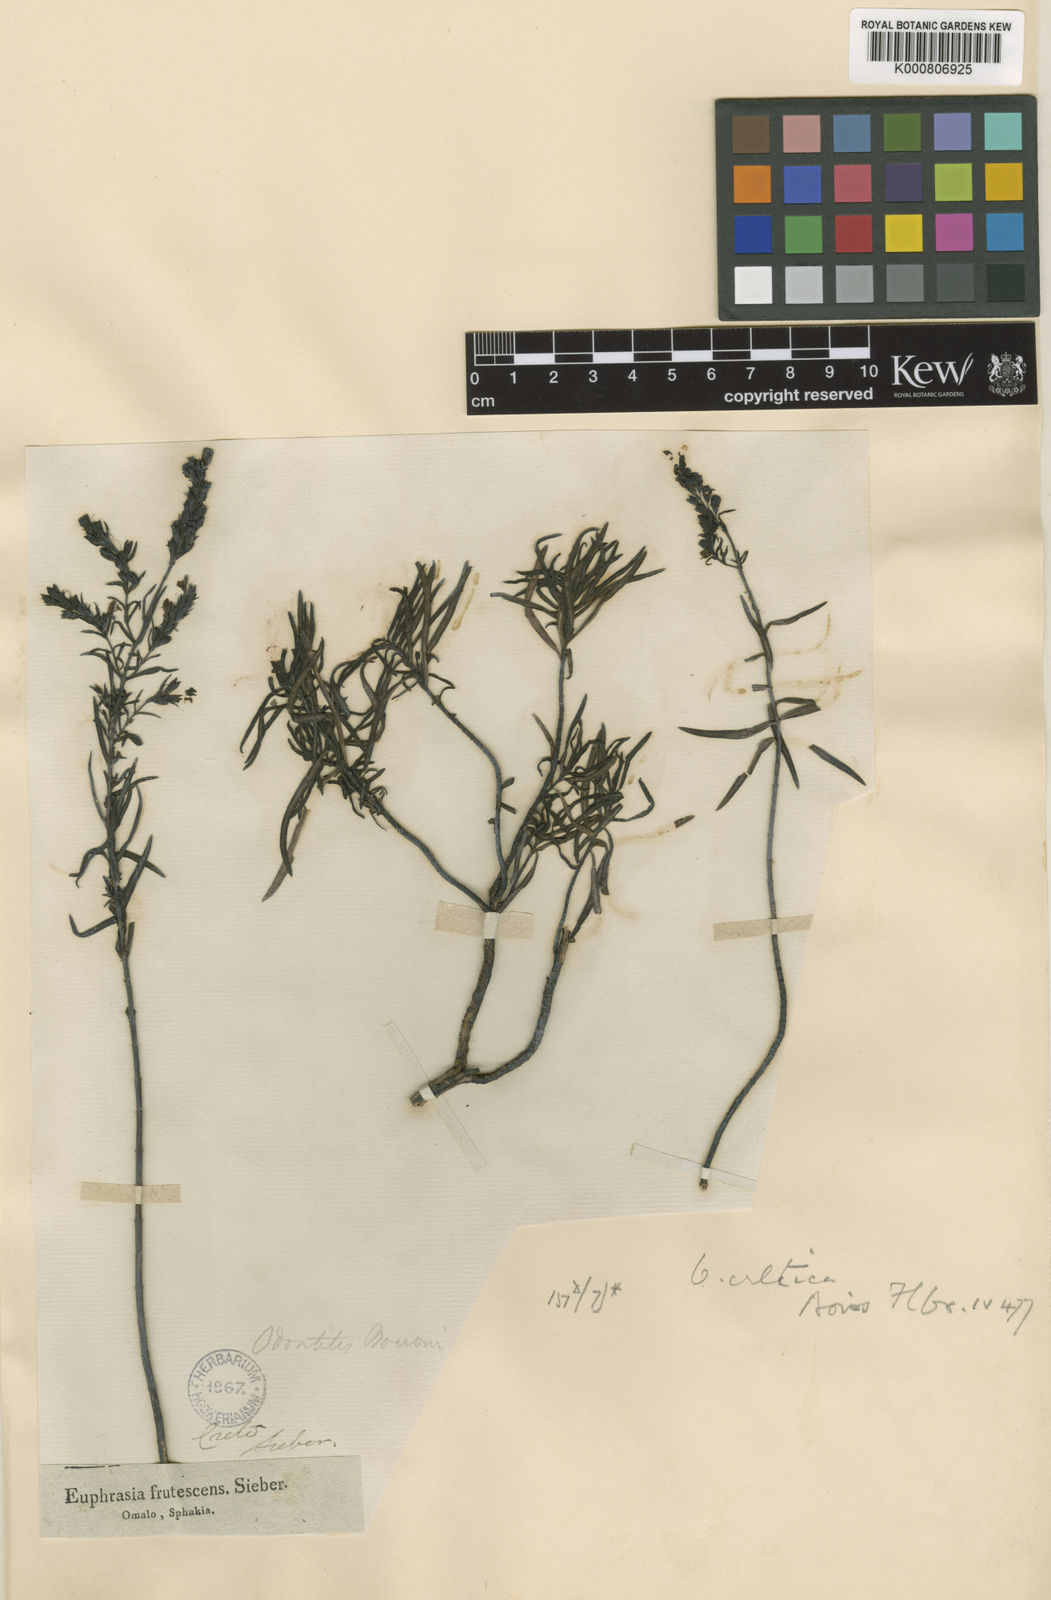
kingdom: Plantae
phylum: Tracheophyta
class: Magnoliopsida
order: Lamiales
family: Orobanchaceae
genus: Odontites
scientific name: Odontites
